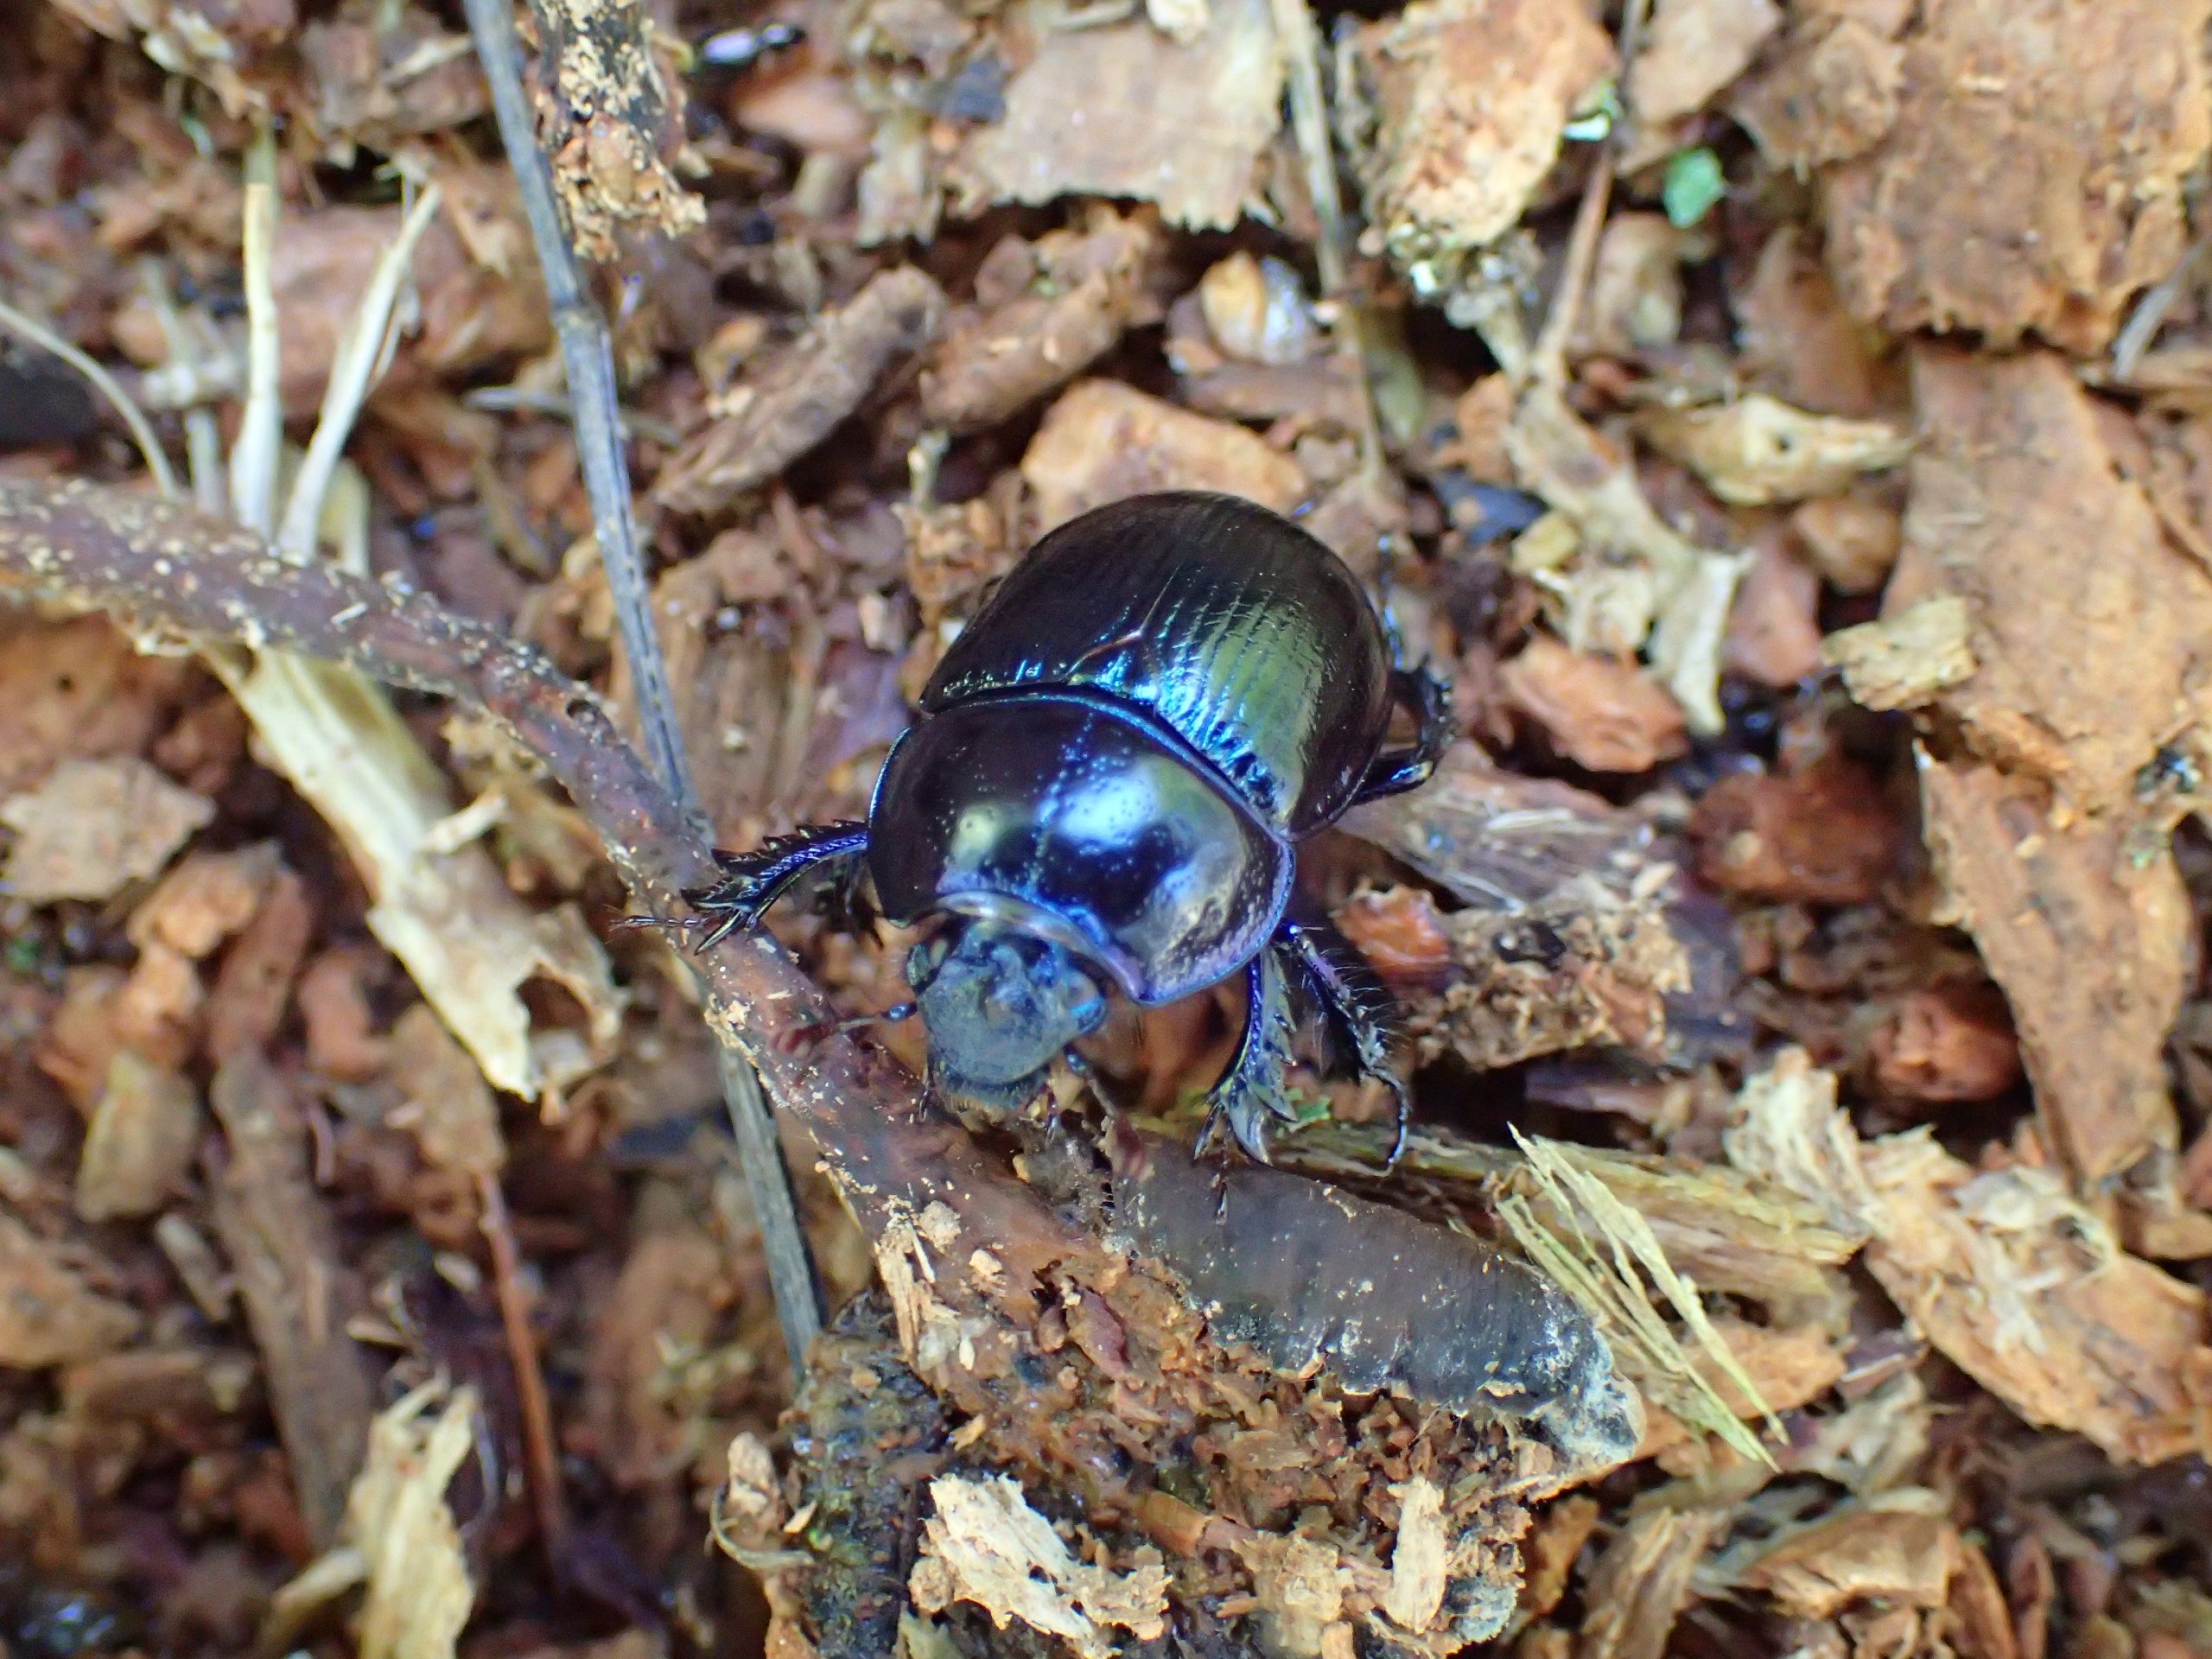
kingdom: Animalia
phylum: Arthropoda
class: Insecta
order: Coleoptera
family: Geotrupidae
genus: Anoplotrupes
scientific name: Anoplotrupes stercorosus
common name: Skovskarnbasse
